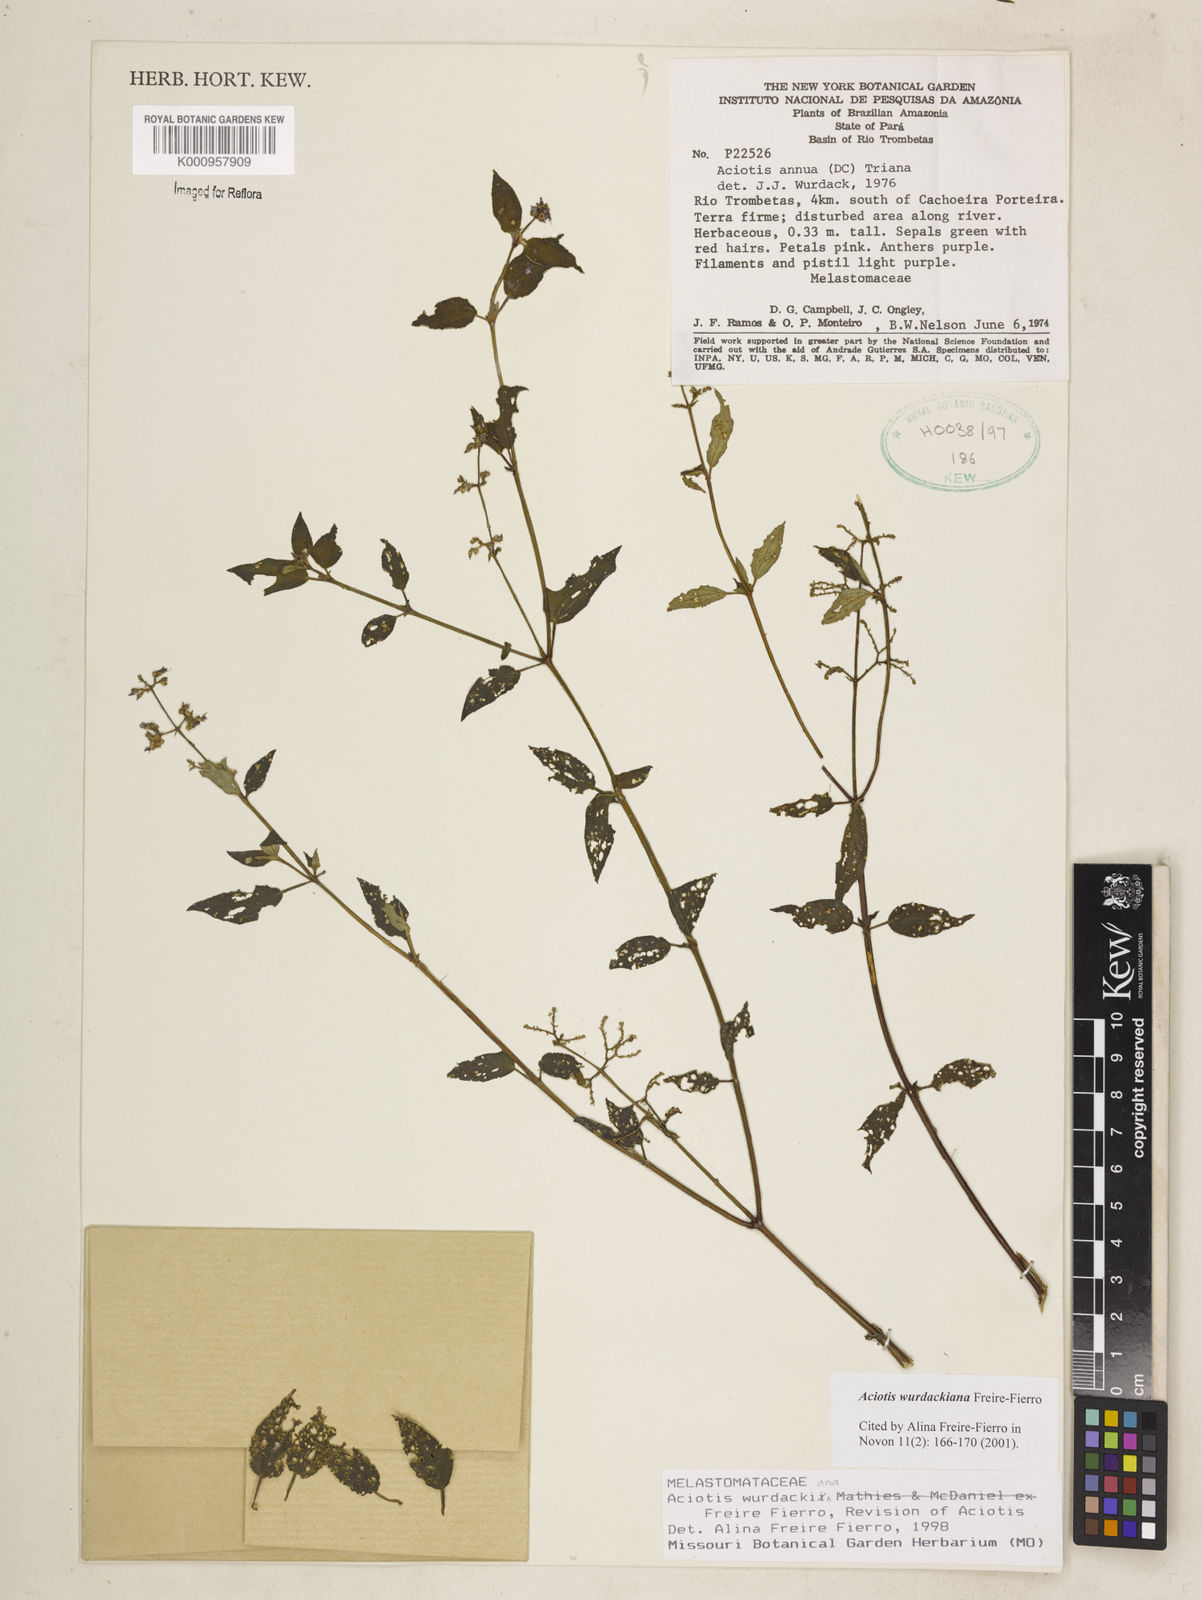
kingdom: Plantae
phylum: Tracheophyta
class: Magnoliopsida
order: Myrtales
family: Melastomataceae
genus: Aciotis
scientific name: Aciotis wurdackiana
